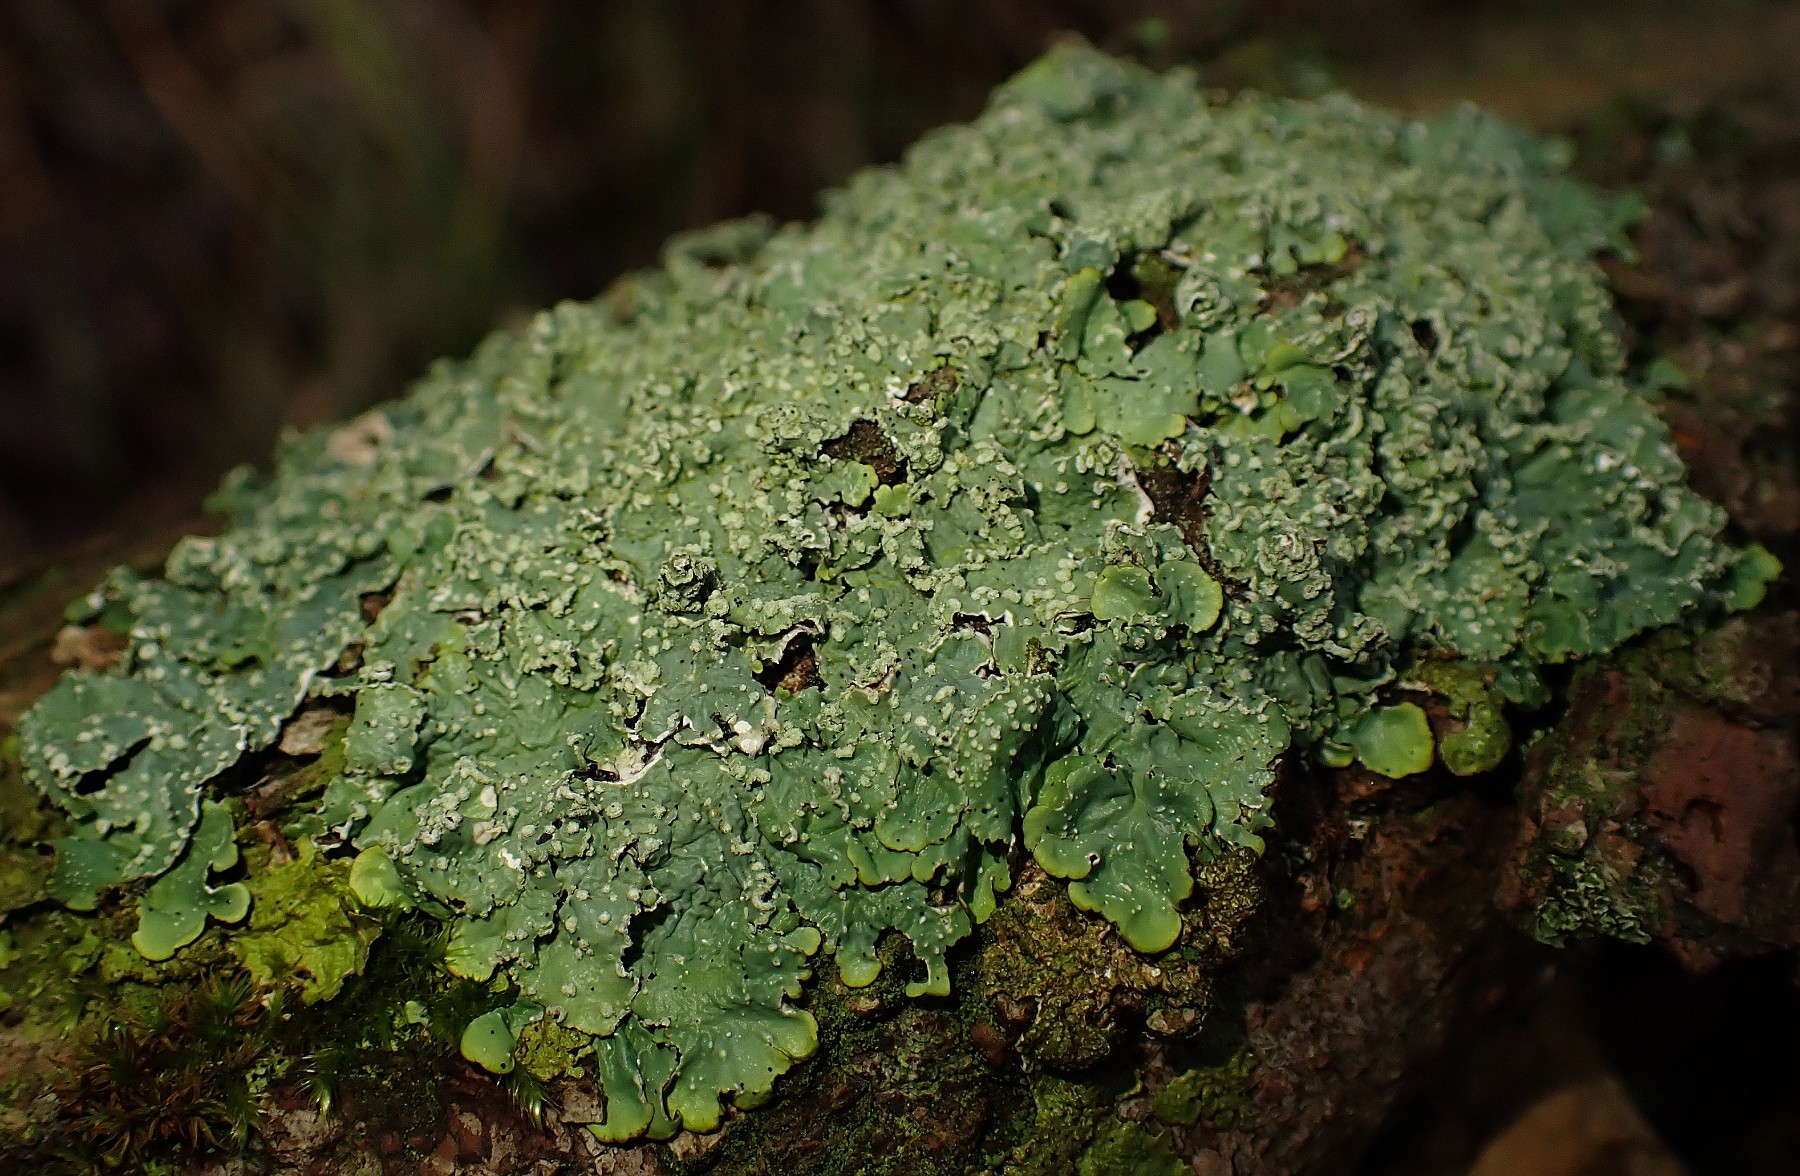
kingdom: Fungi
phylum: Ascomycota
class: Lecanoromycetes
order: Lecanorales
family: Parmeliaceae
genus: Punctelia
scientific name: Punctelia subrudecta
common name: punkt-skållav
